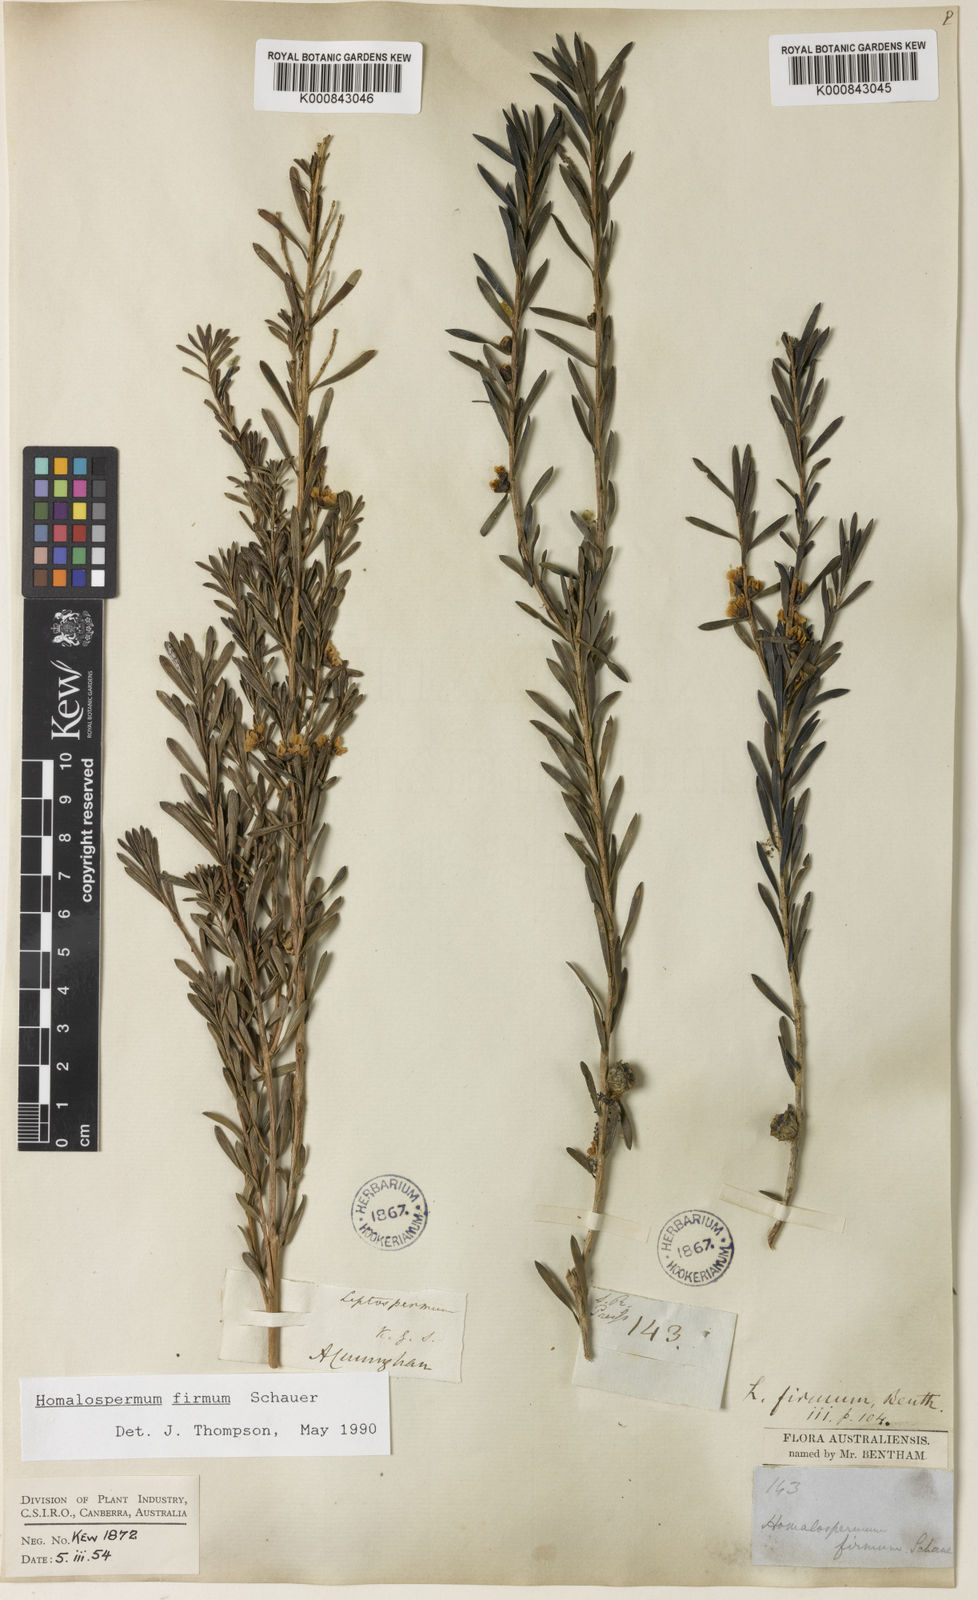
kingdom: Plantae
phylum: Tracheophyta
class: Magnoliopsida
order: Myrtales
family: Myrtaceae
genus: Homalospermum
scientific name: Homalospermum firmum
